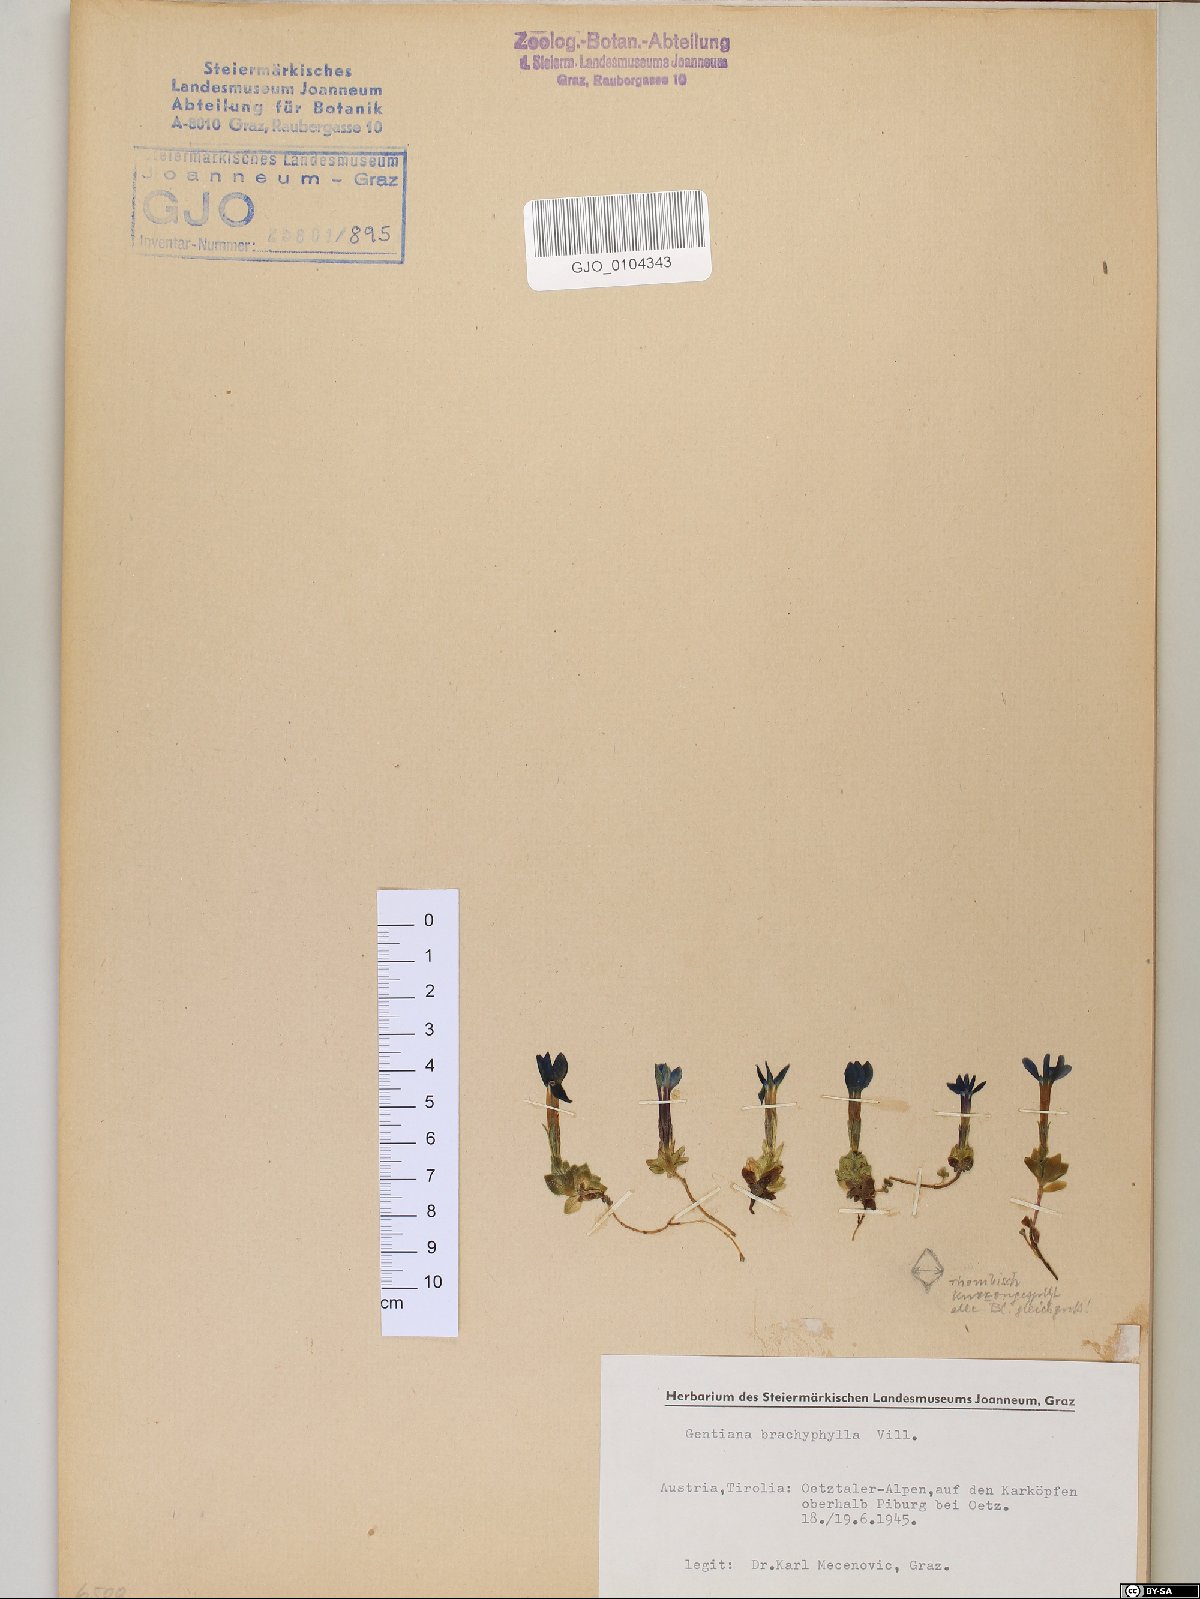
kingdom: Plantae
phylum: Tracheophyta
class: Magnoliopsida
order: Gentianales
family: Gentianaceae
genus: Gentiana
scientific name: Gentiana brachyphylla
